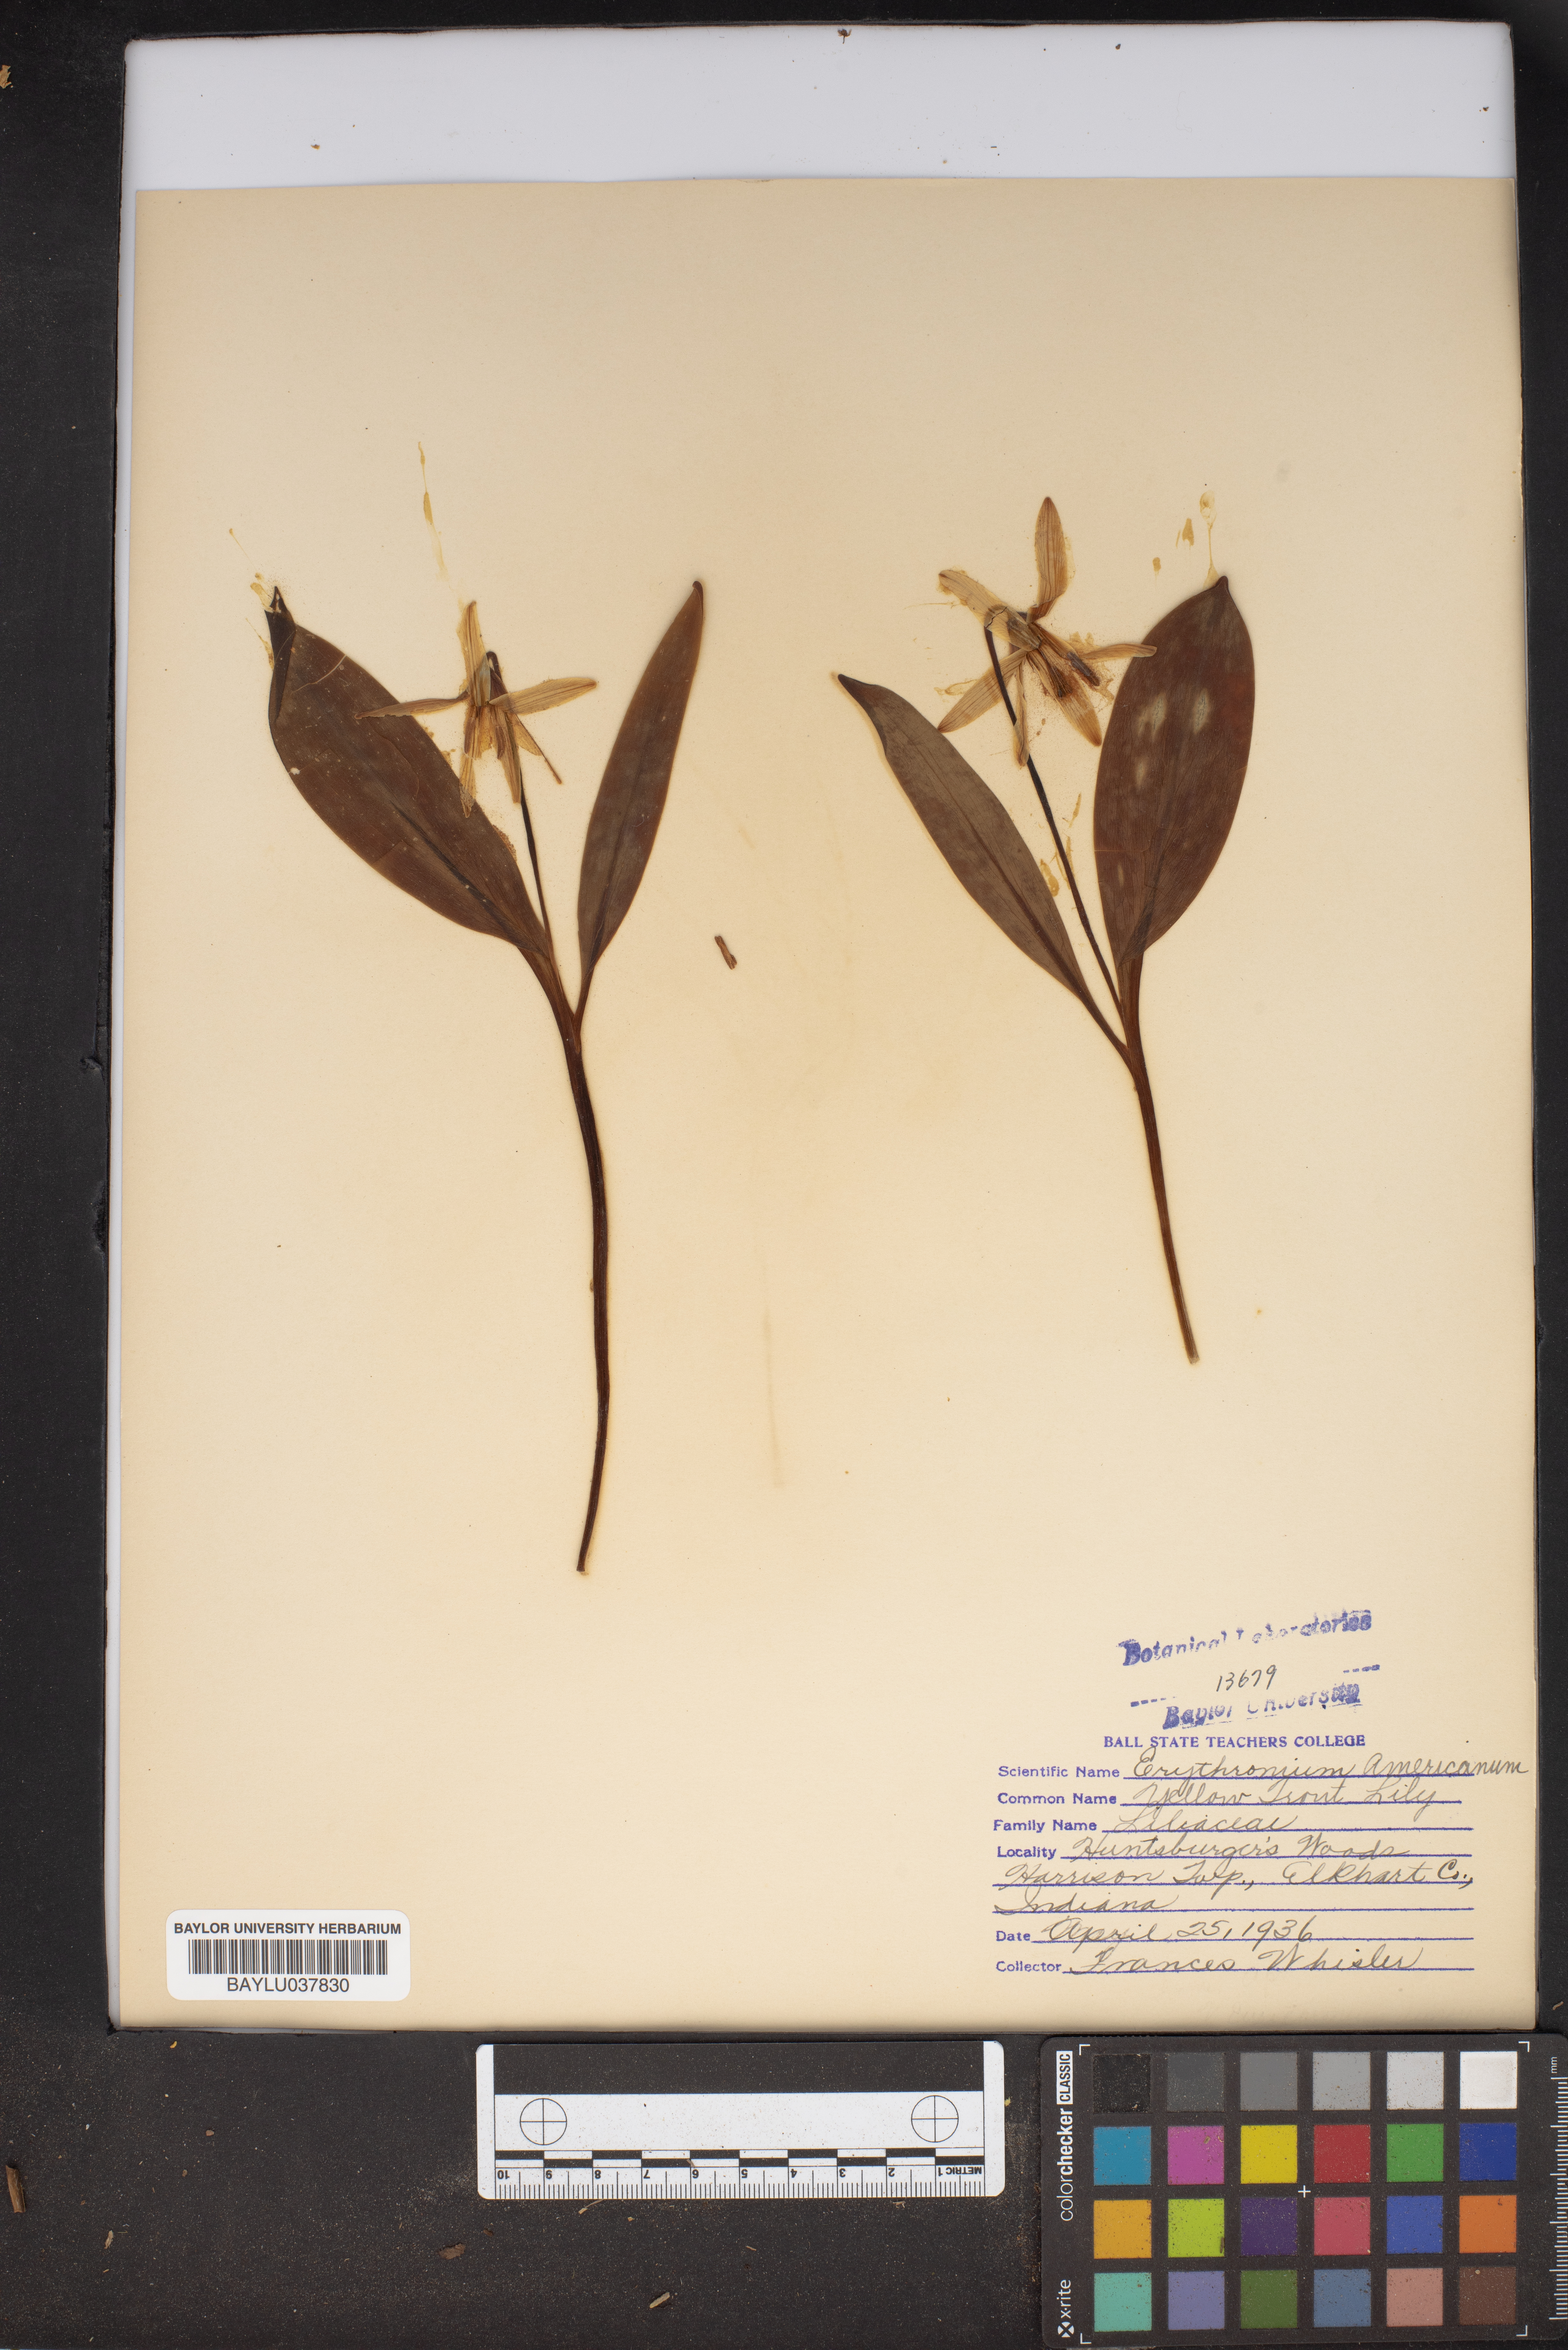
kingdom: Plantae
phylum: Tracheophyta
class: Liliopsida
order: Liliales
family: Liliaceae
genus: Erythronium
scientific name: Erythronium americanum
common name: Yellow adder's-tongue
